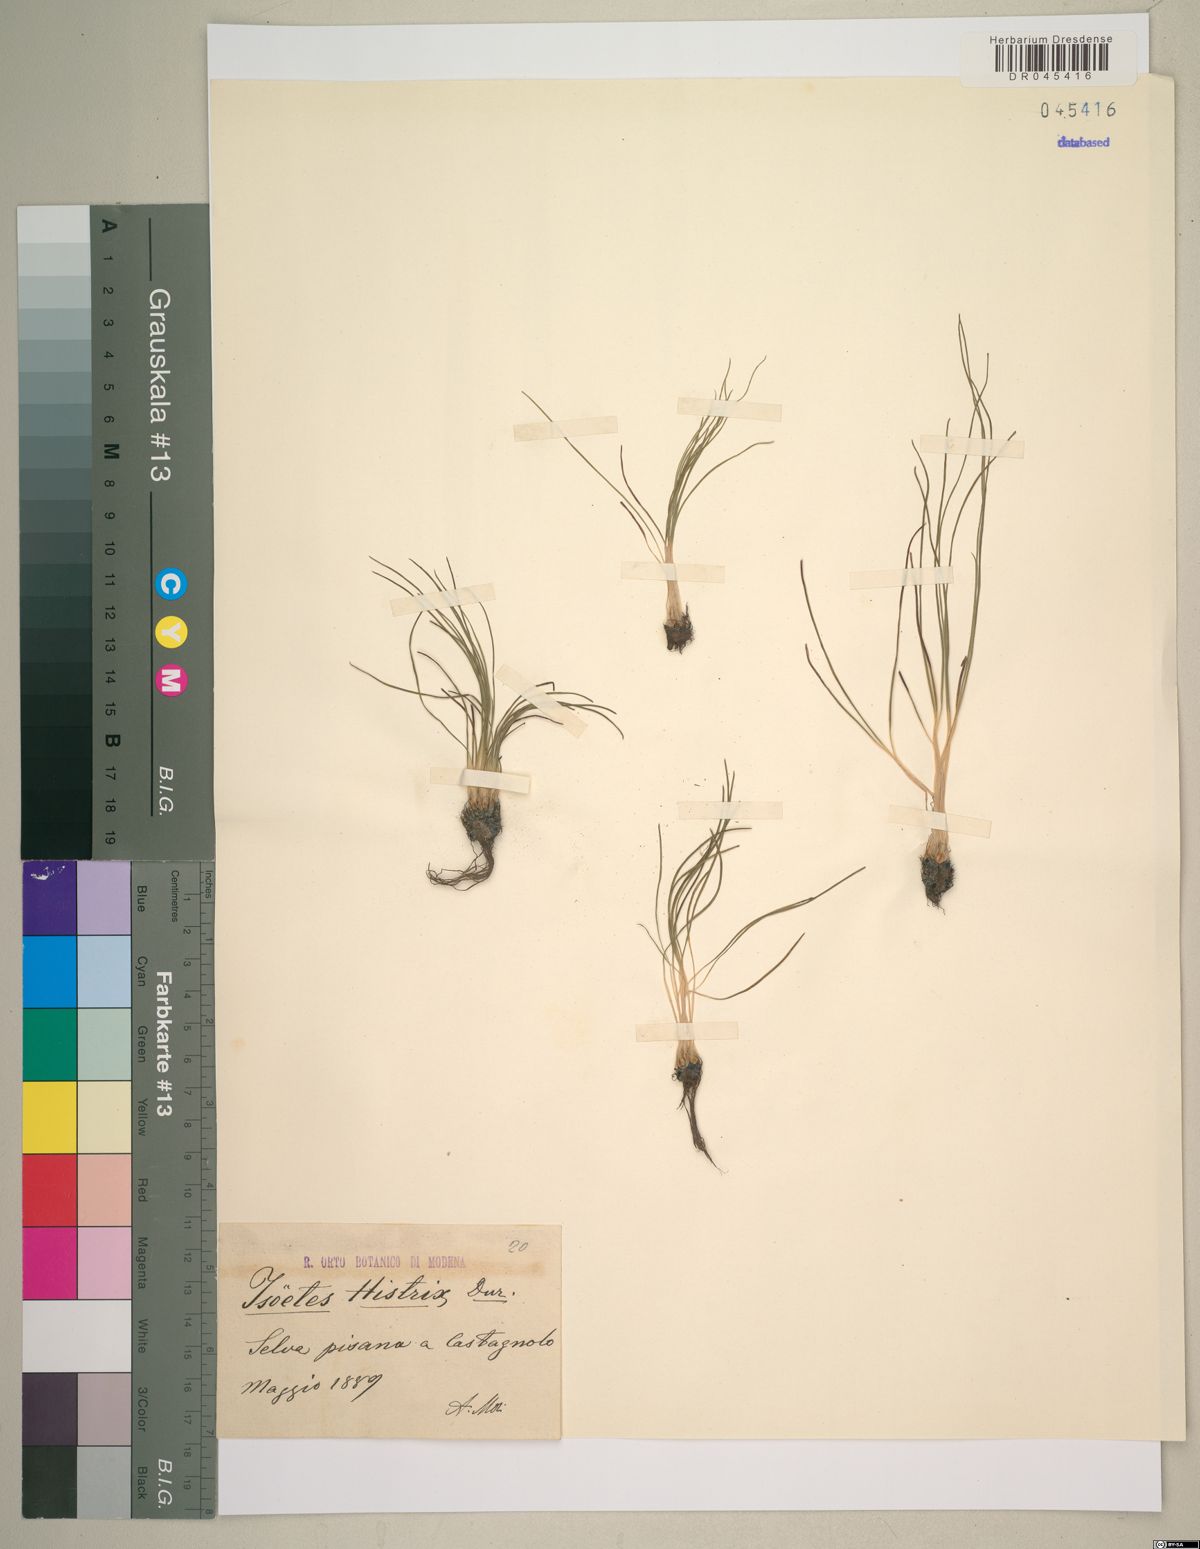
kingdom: Plantae
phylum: Tracheophyta
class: Lycopodiopsida
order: Isoetales
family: Isoetaceae
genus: Isoetes
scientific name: Isoetes histrix
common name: Land quillwort
